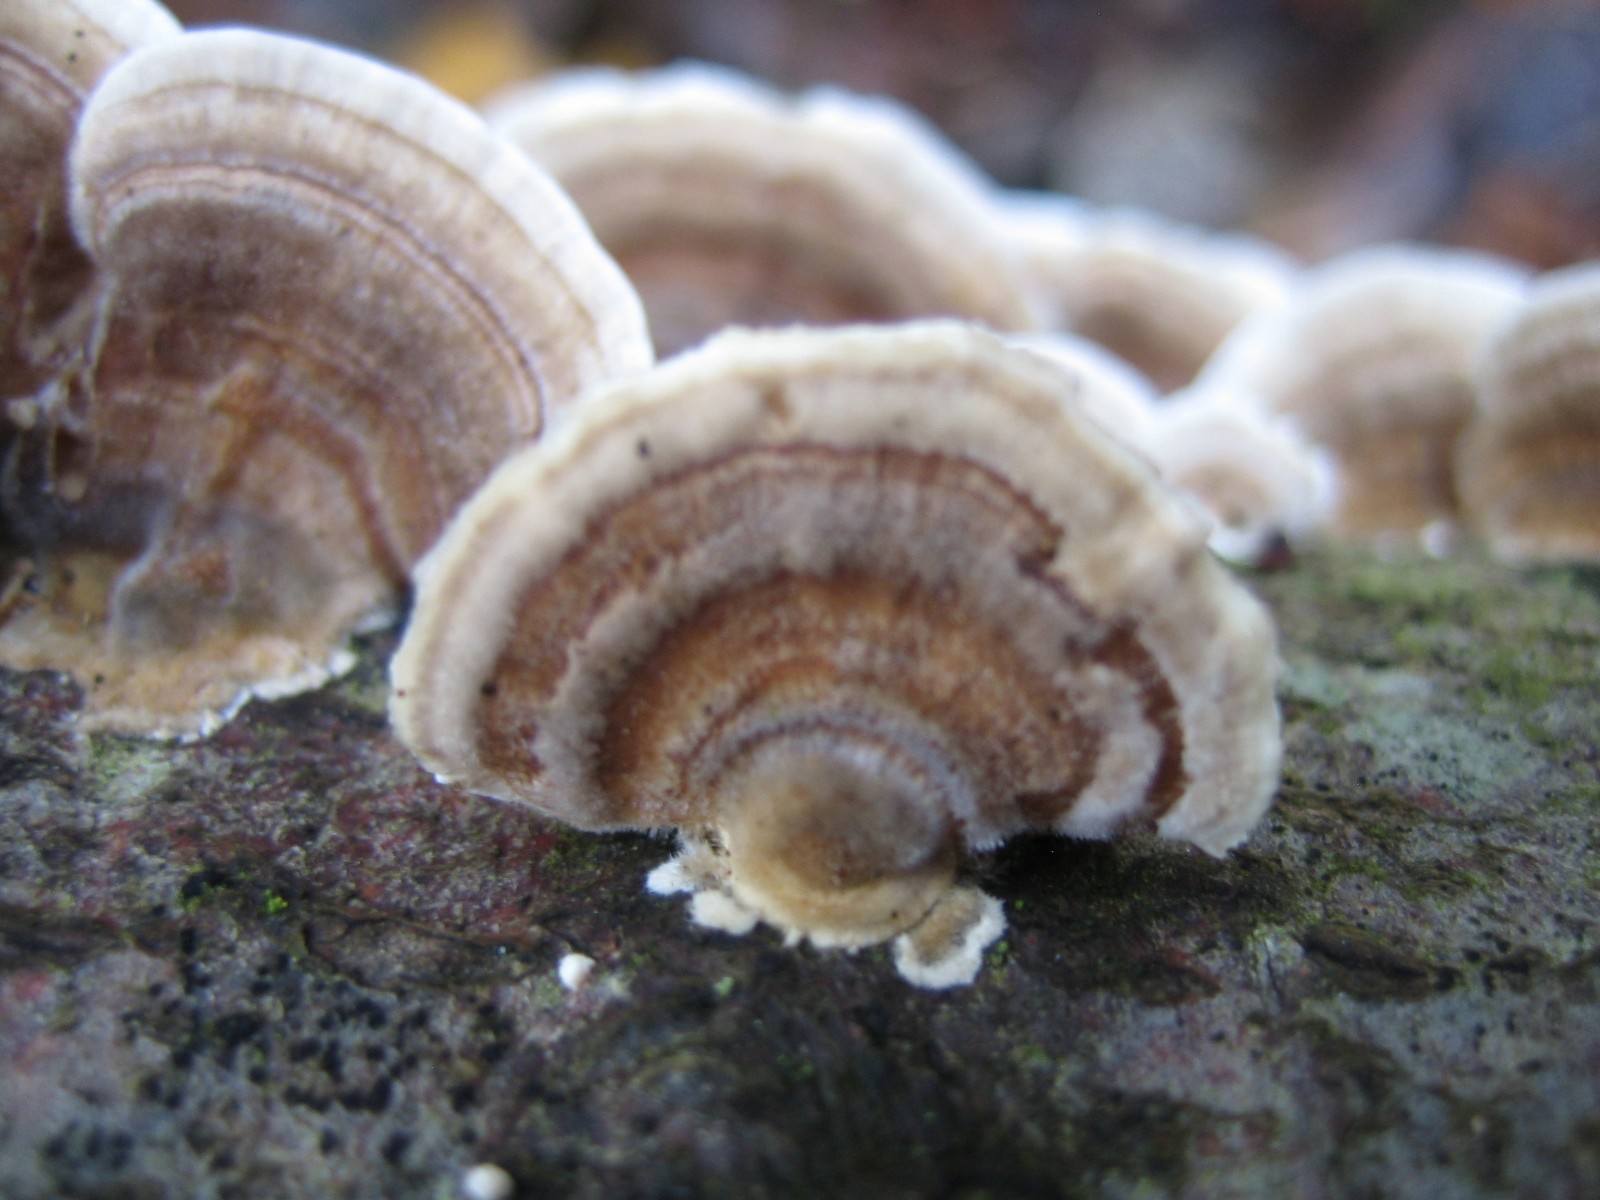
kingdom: Fungi
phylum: Basidiomycota
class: Agaricomycetes
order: Polyporales
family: Polyporaceae
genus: Trametes
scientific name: Trametes versicolor
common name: broget læderporesvamp
